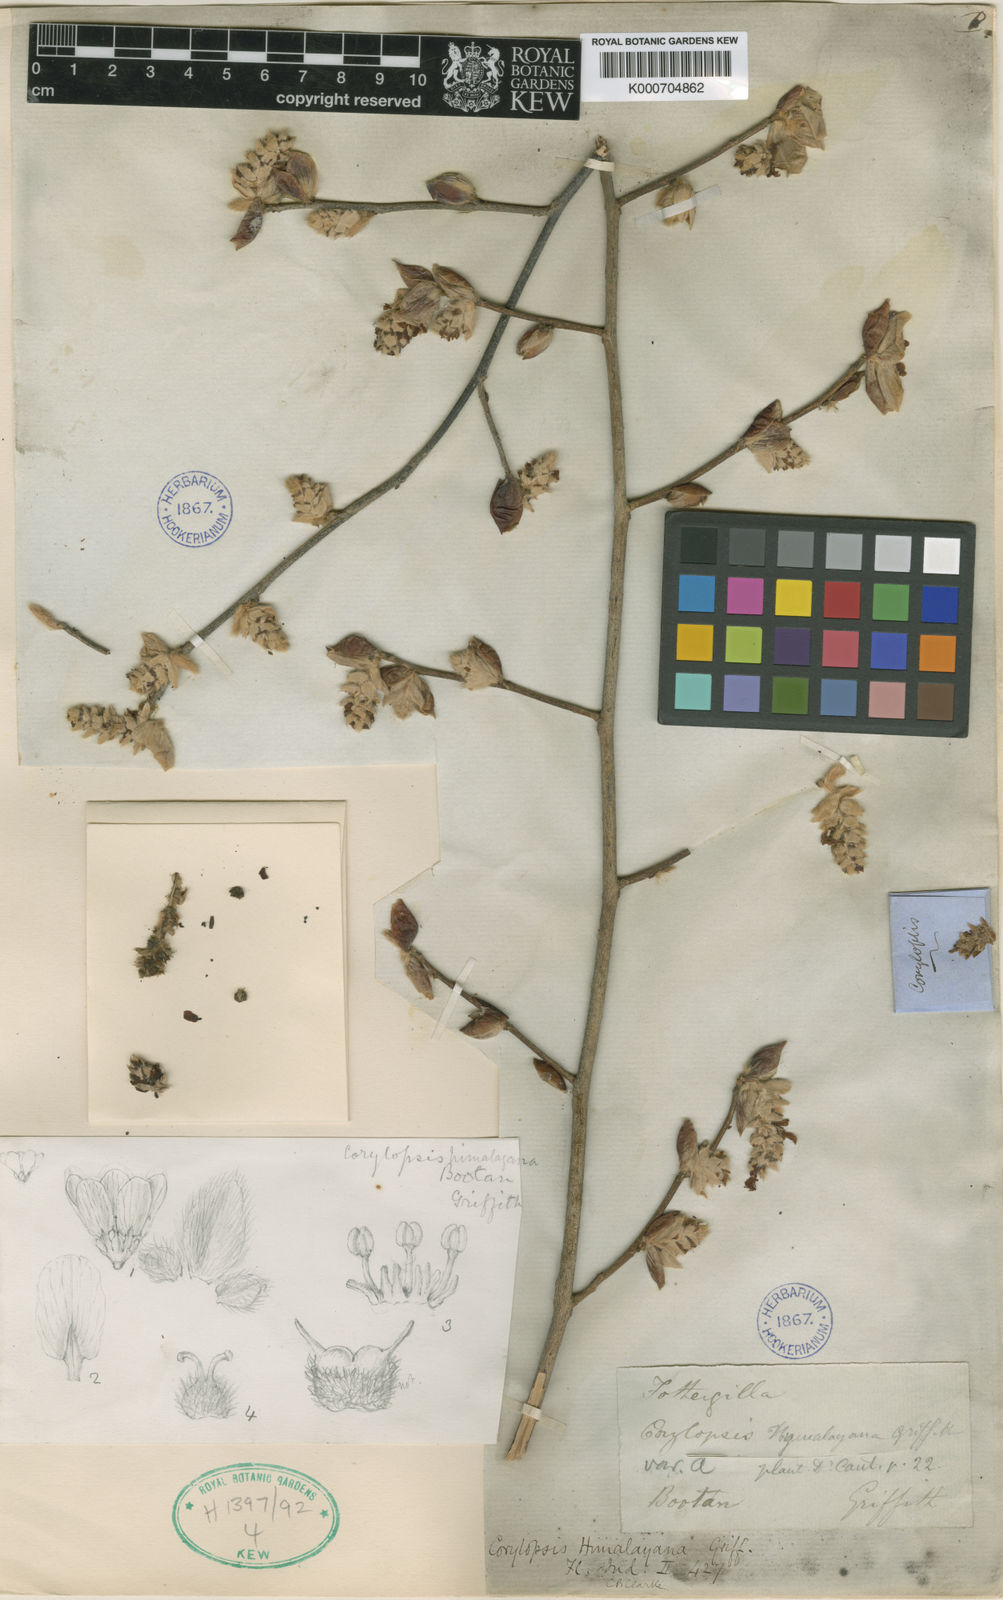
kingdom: Plantae
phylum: Tracheophyta
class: Magnoliopsida
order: Saxifragales
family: Hamamelidaceae
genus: Corylopsis
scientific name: Corylopsis himalayana
